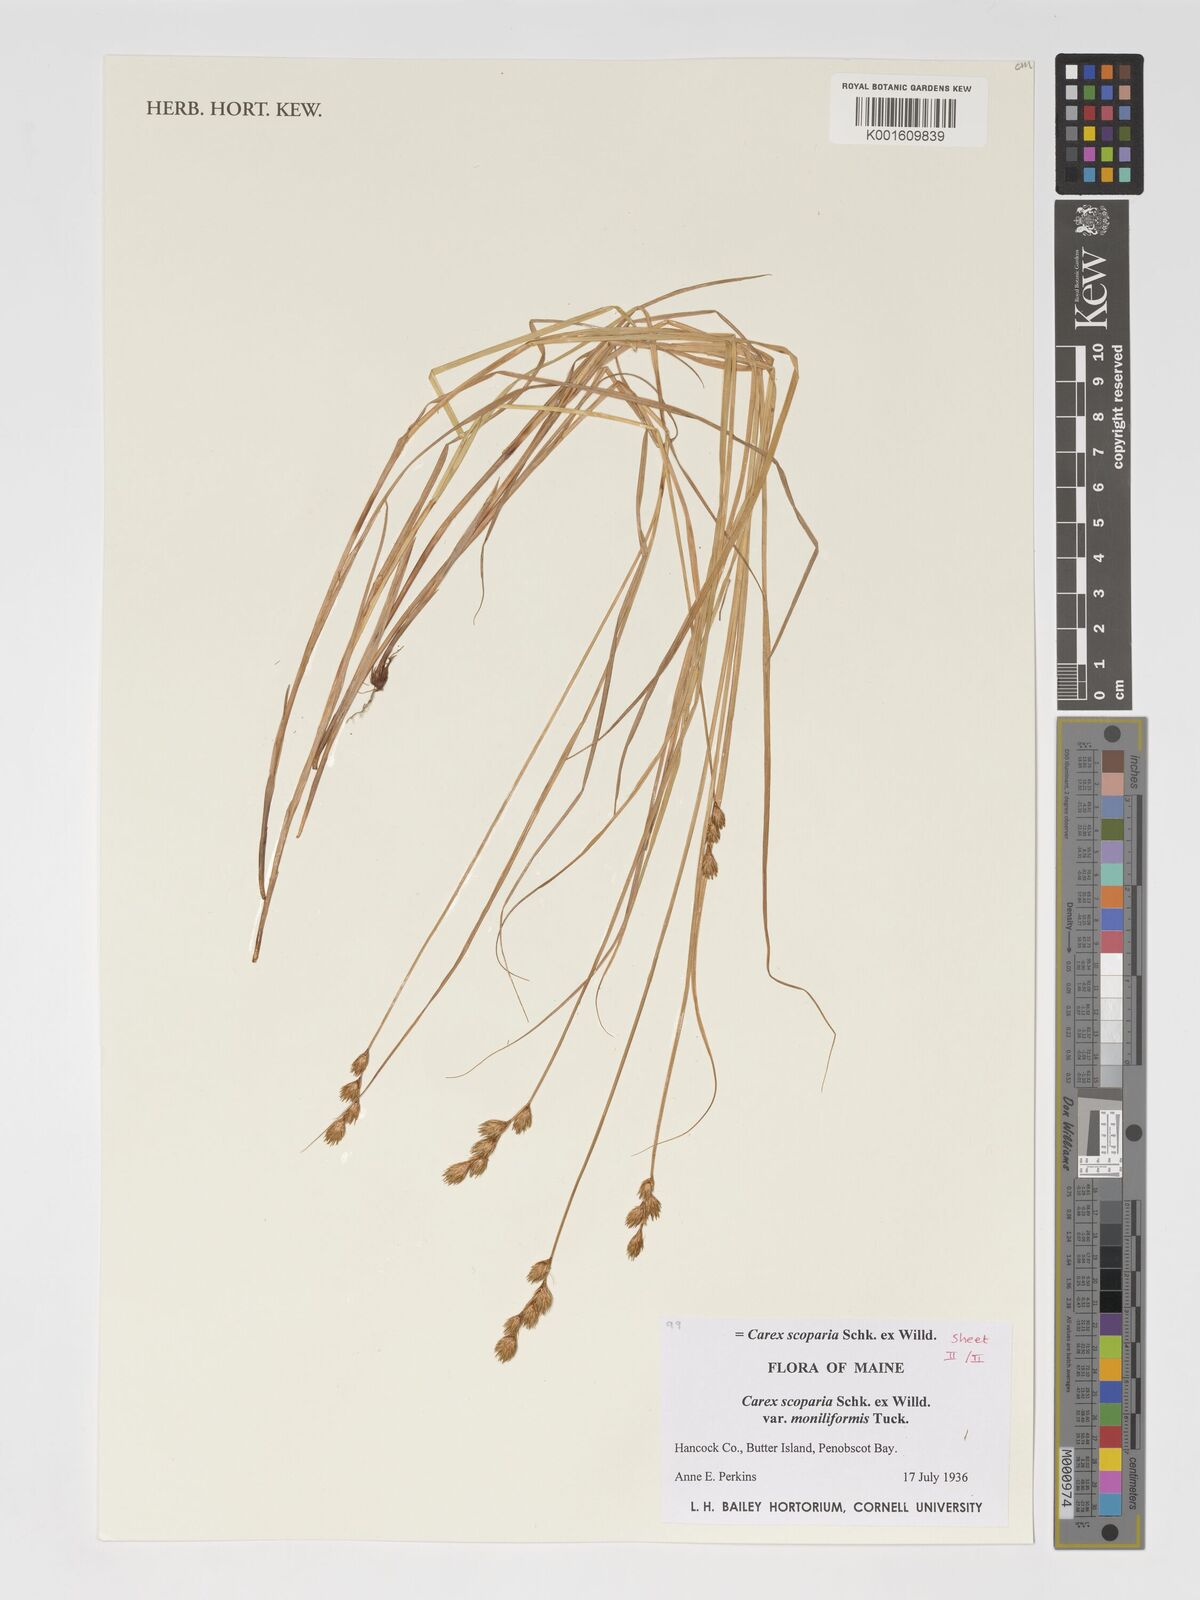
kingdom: Plantae
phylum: Tracheophyta
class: Liliopsida
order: Poales
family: Cyperaceae
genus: Carex
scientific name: Carex scoparia
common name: Broom sedge
